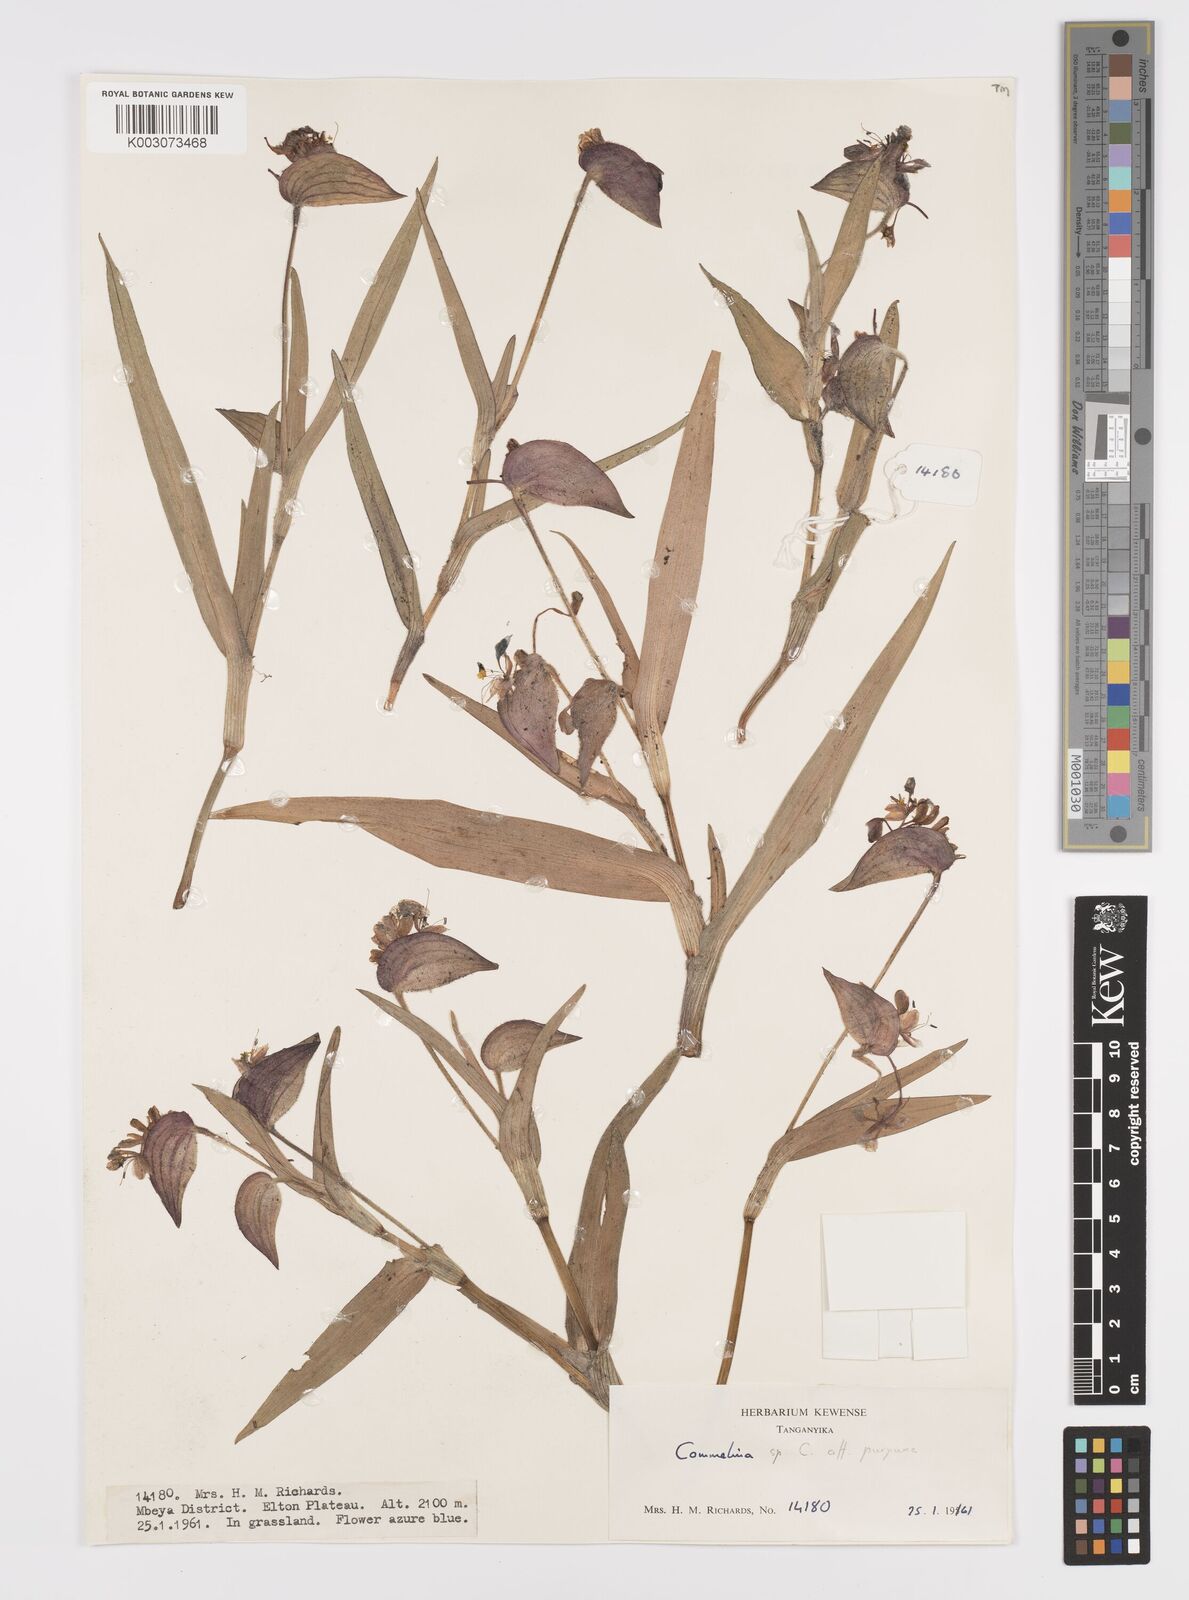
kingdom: Plantae
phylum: Tracheophyta
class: Liliopsida
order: Commelinales
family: Commelinaceae
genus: Commelina
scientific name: Commelina kituloensis
